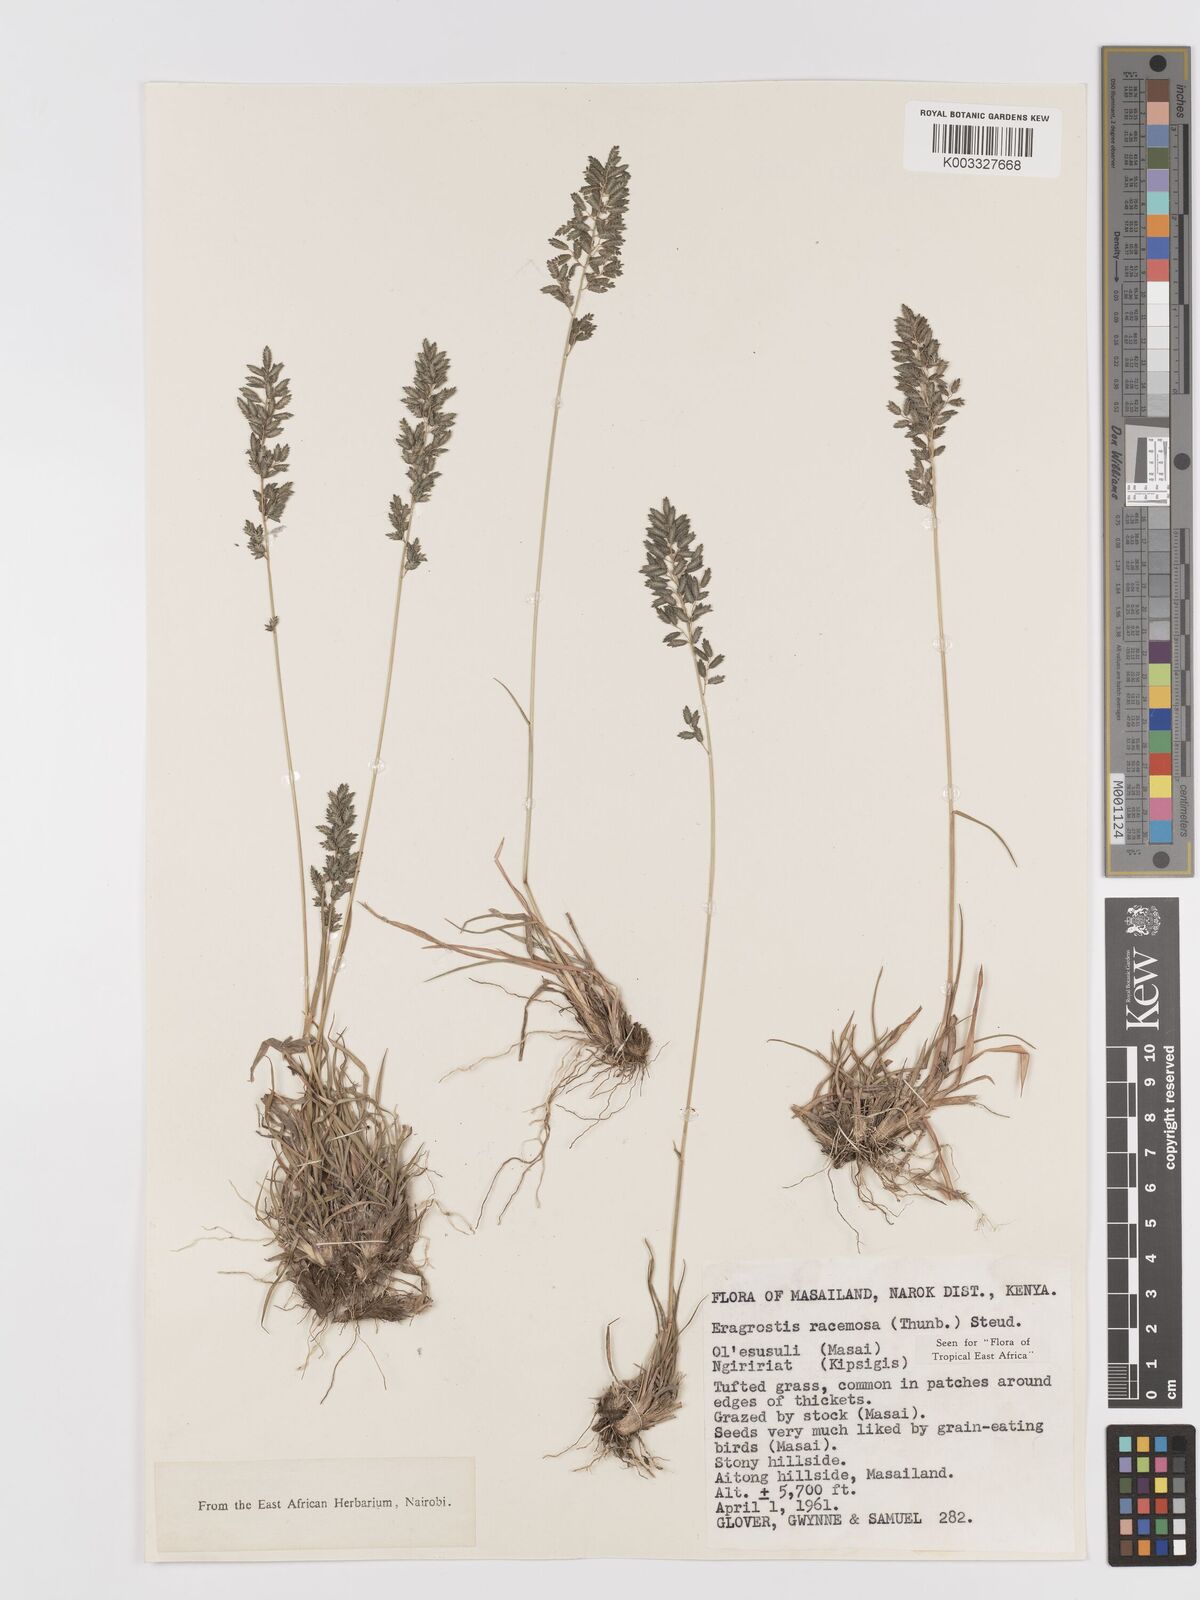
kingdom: Plantae
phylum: Tracheophyta
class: Liliopsida
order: Poales
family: Poaceae
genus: Eragrostis
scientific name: Eragrostis racemosa
